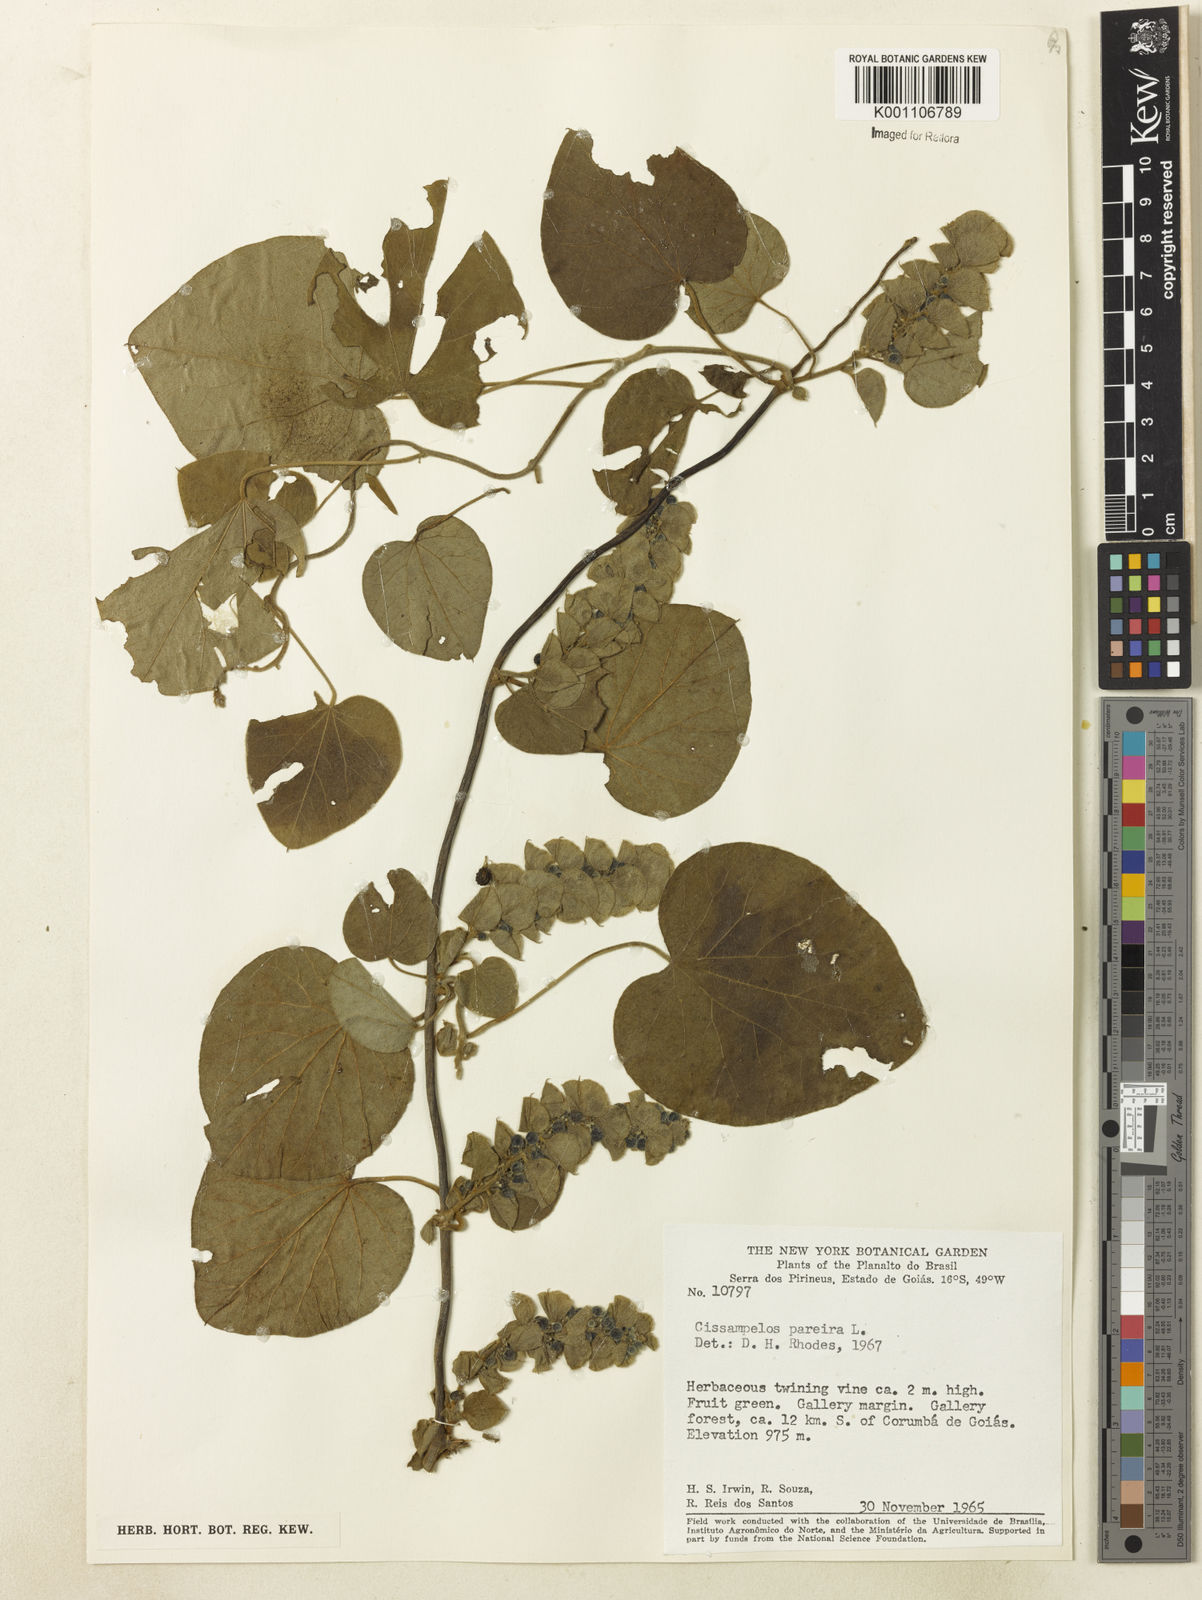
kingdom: Plantae
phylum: Tracheophyta
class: Magnoliopsida
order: Ranunculales
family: Menispermaceae
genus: Cissampelos
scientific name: Cissampelos pareira
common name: Velvetleaf
